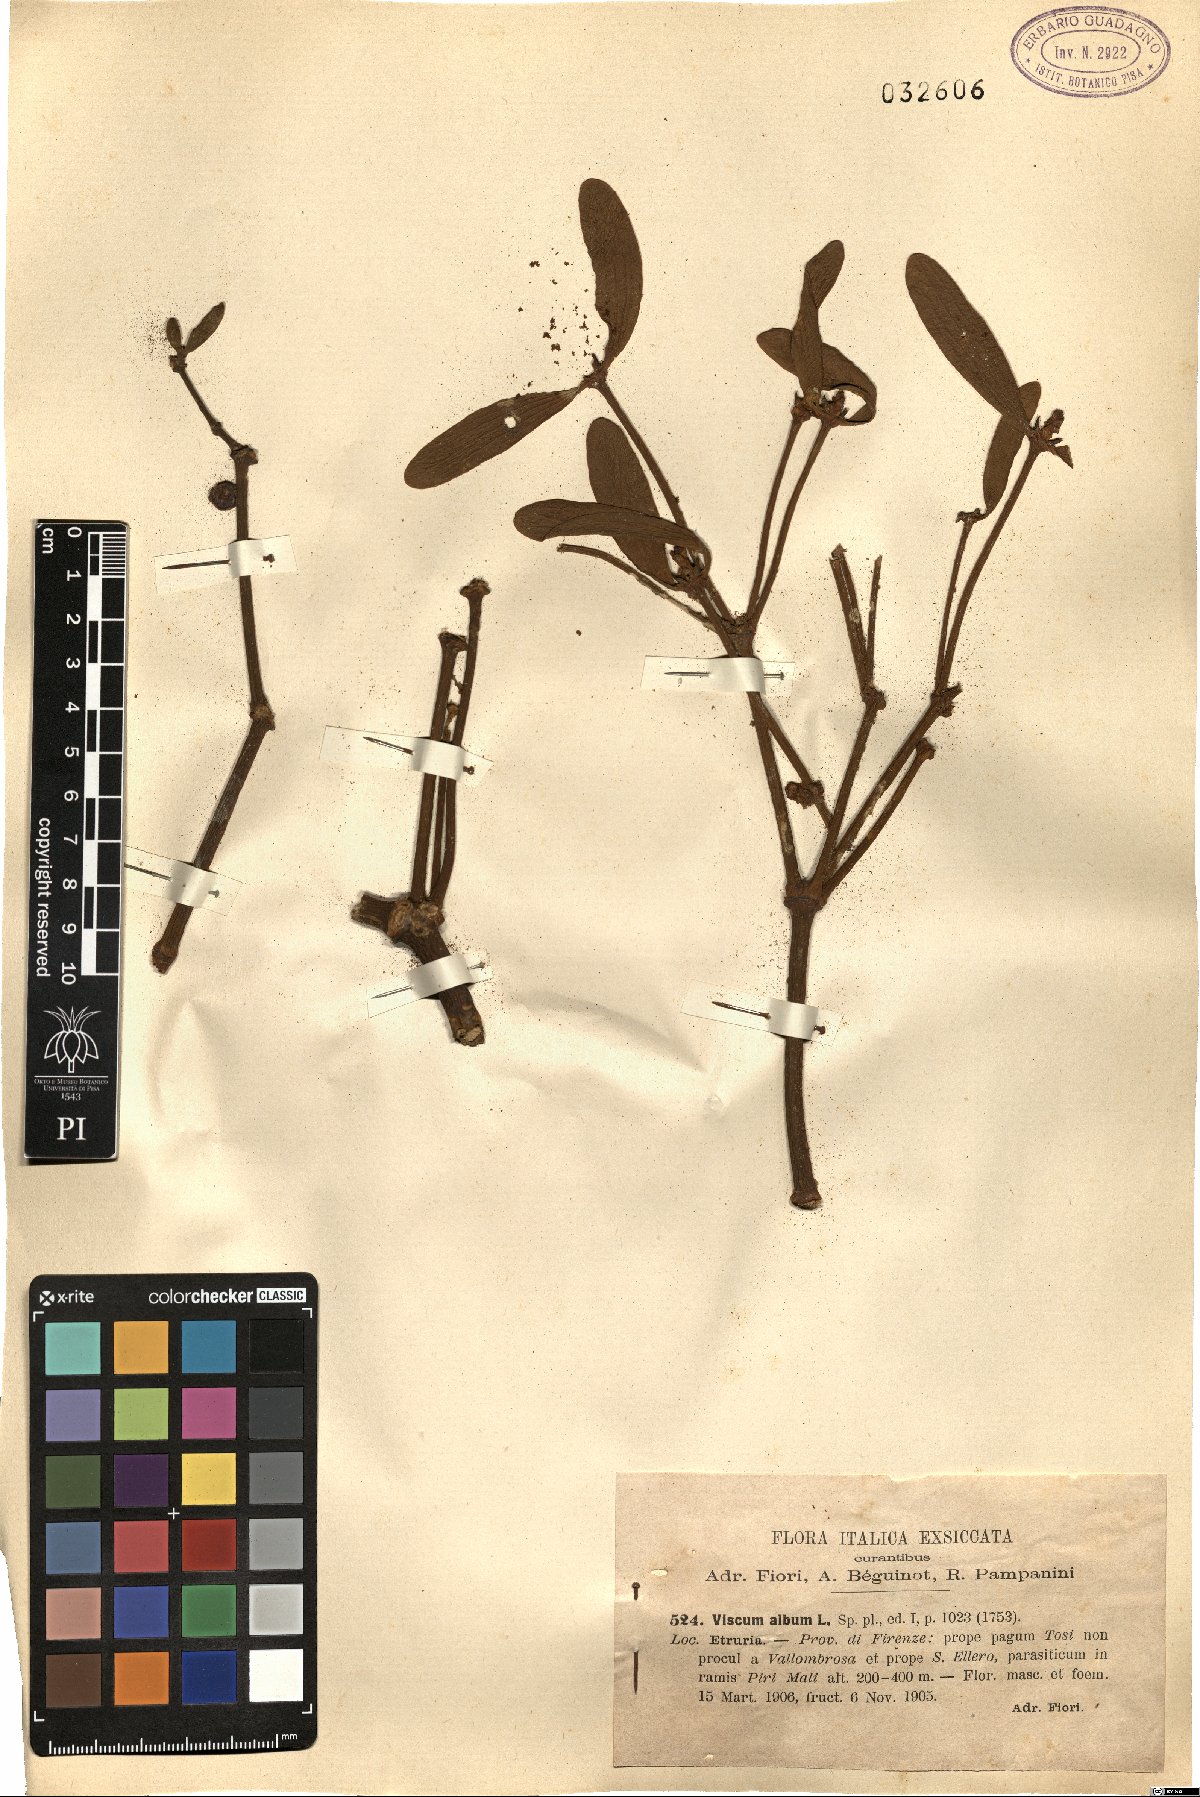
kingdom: Plantae
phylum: Tracheophyta
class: Magnoliopsida
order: Santalales
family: Viscaceae
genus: Viscum
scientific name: Viscum album
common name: Mistletoe
